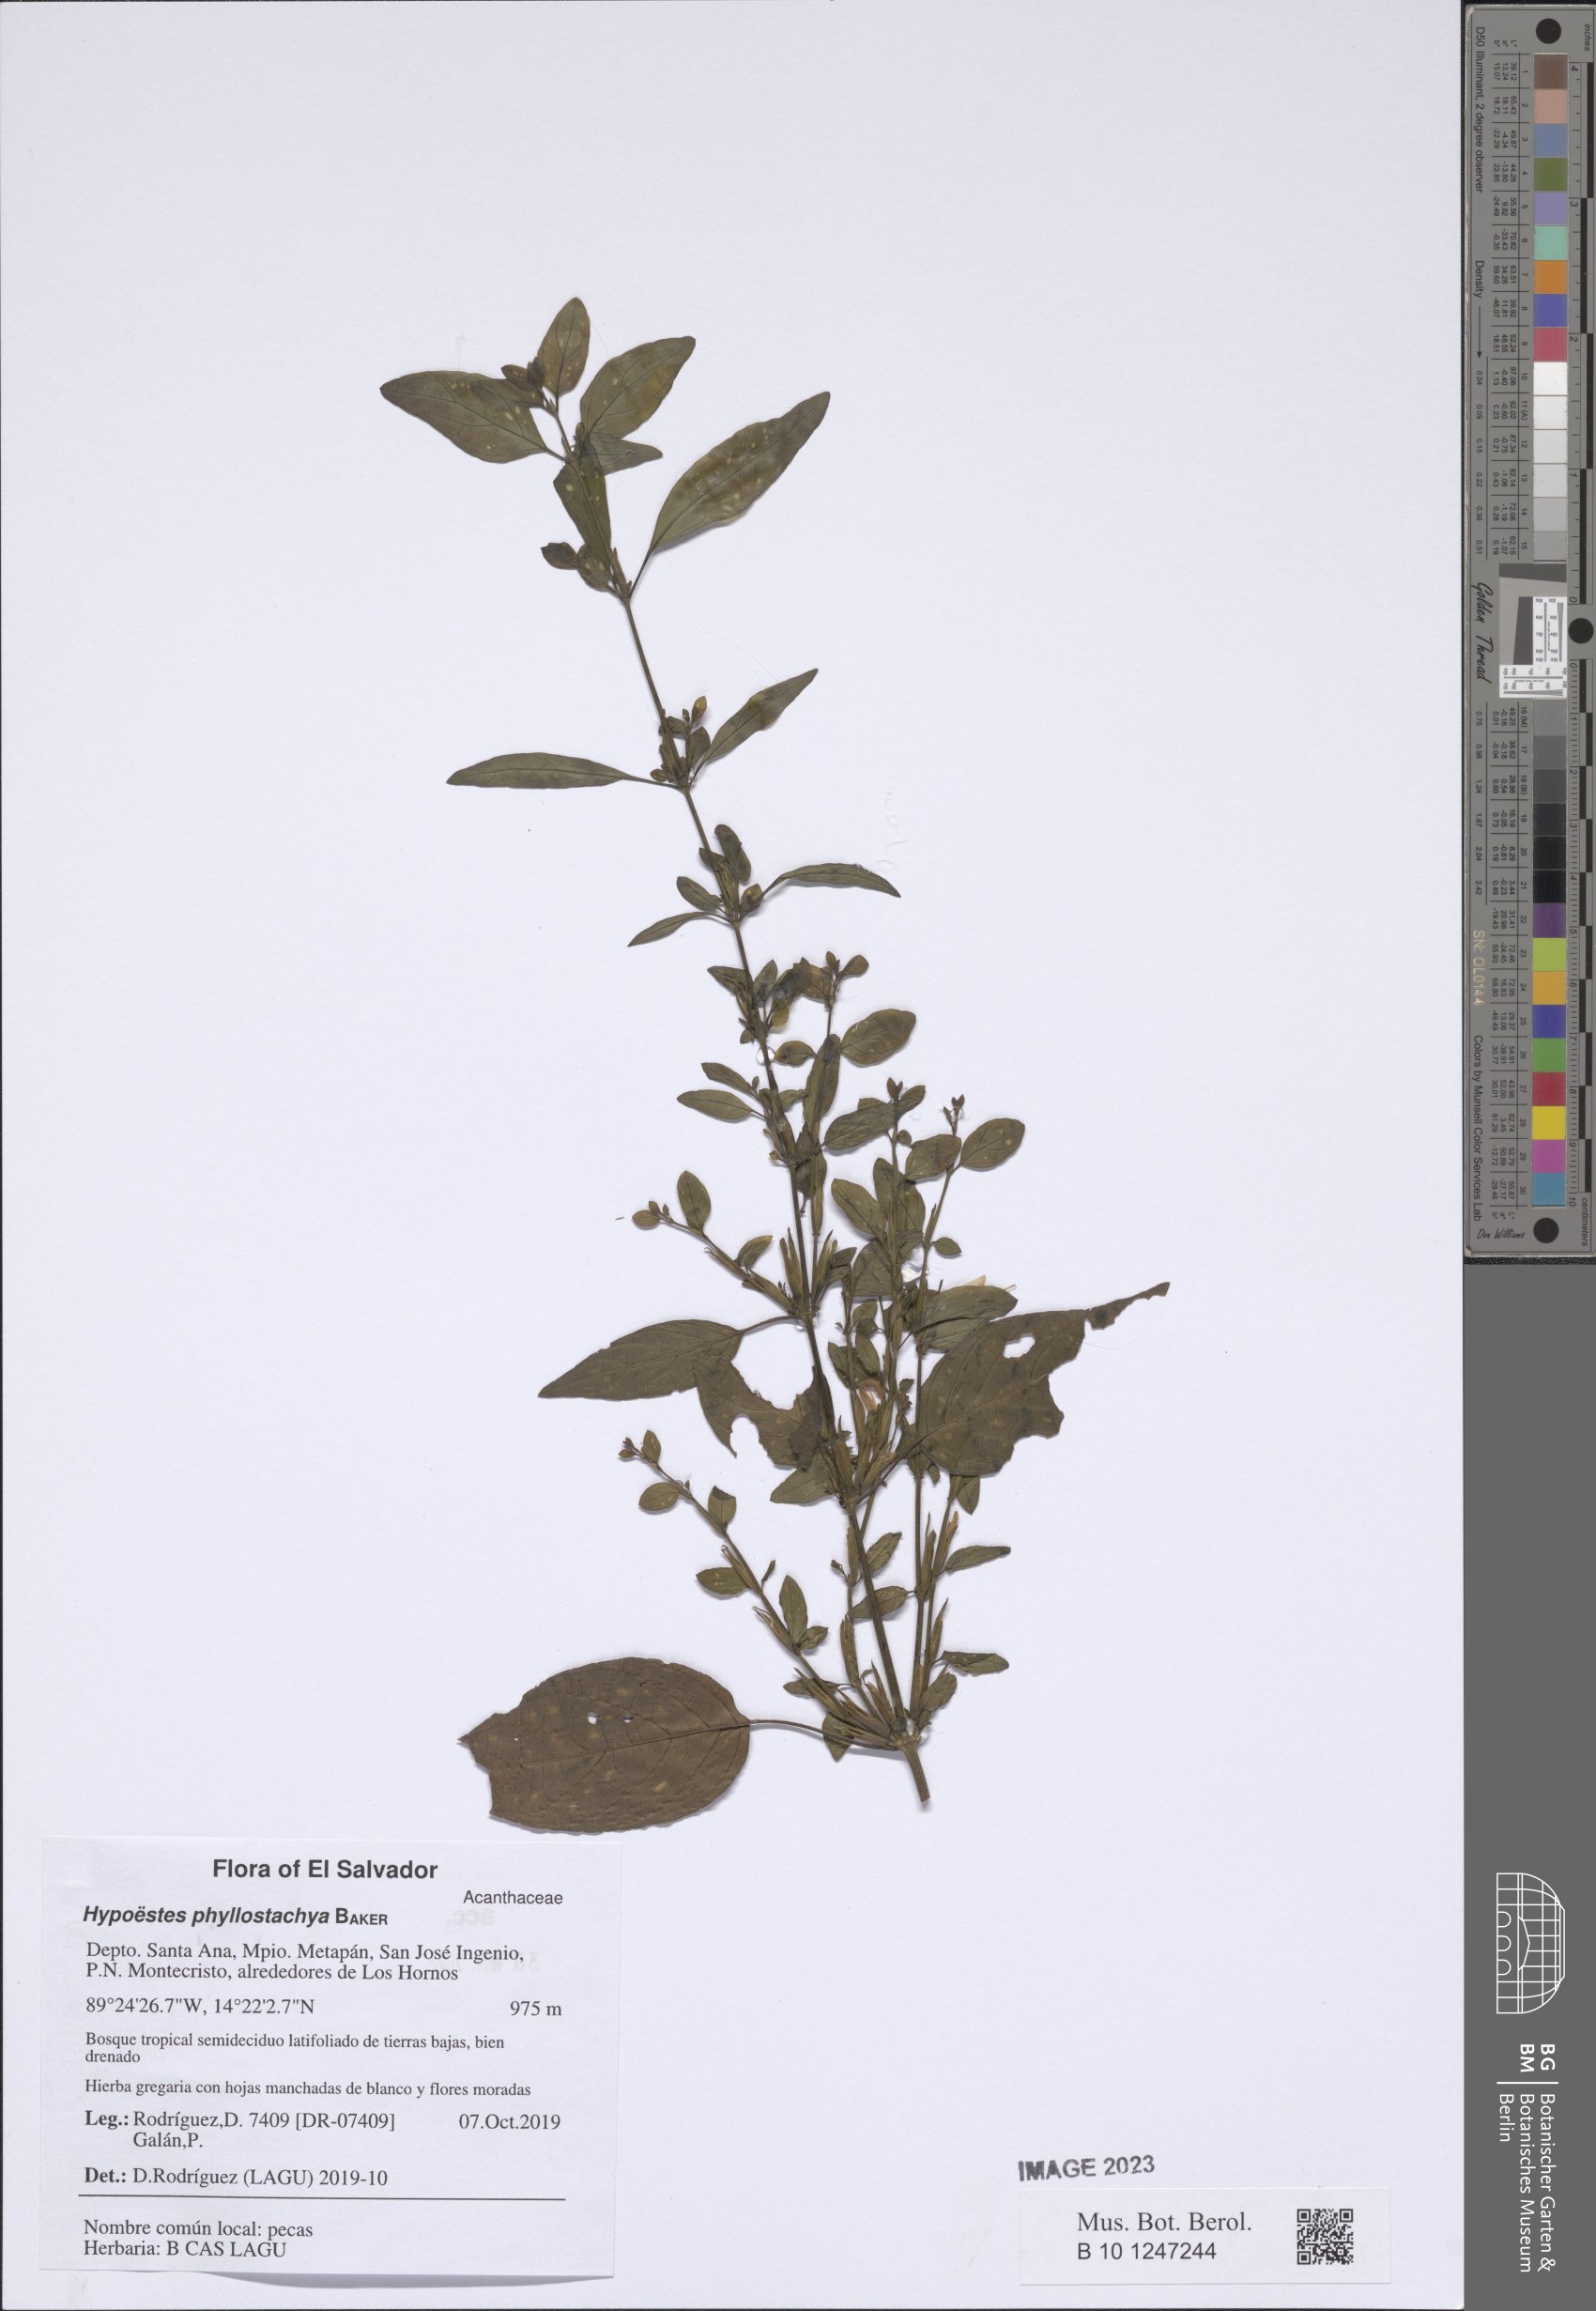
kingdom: Plantae
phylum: Tracheophyta
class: Magnoliopsida
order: Lamiales
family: Acanthaceae
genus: Hypoestes
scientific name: Hypoestes phyllostachya
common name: Polkadot-plant
